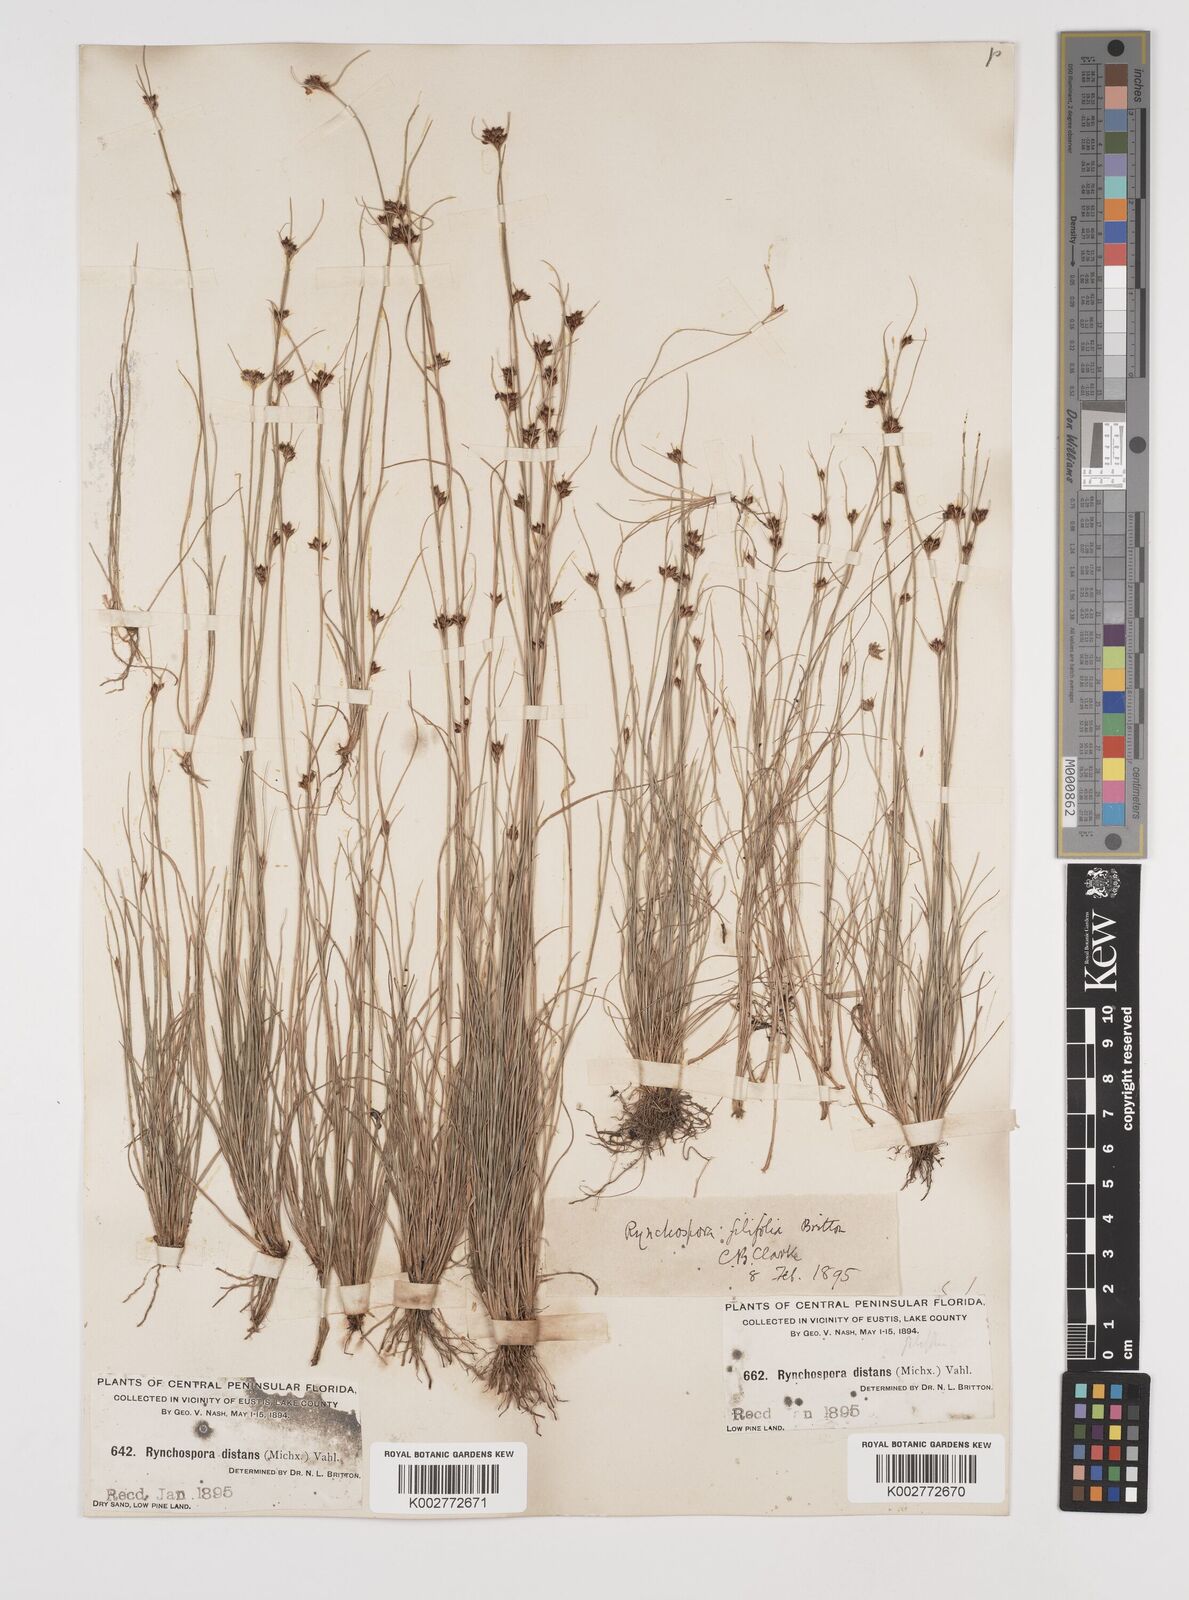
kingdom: Plantae
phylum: Tracheophyta
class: Liliopsida
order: Poales
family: Cyperaceae
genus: Rhynchospora
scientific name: Rhynchospora filifolia
